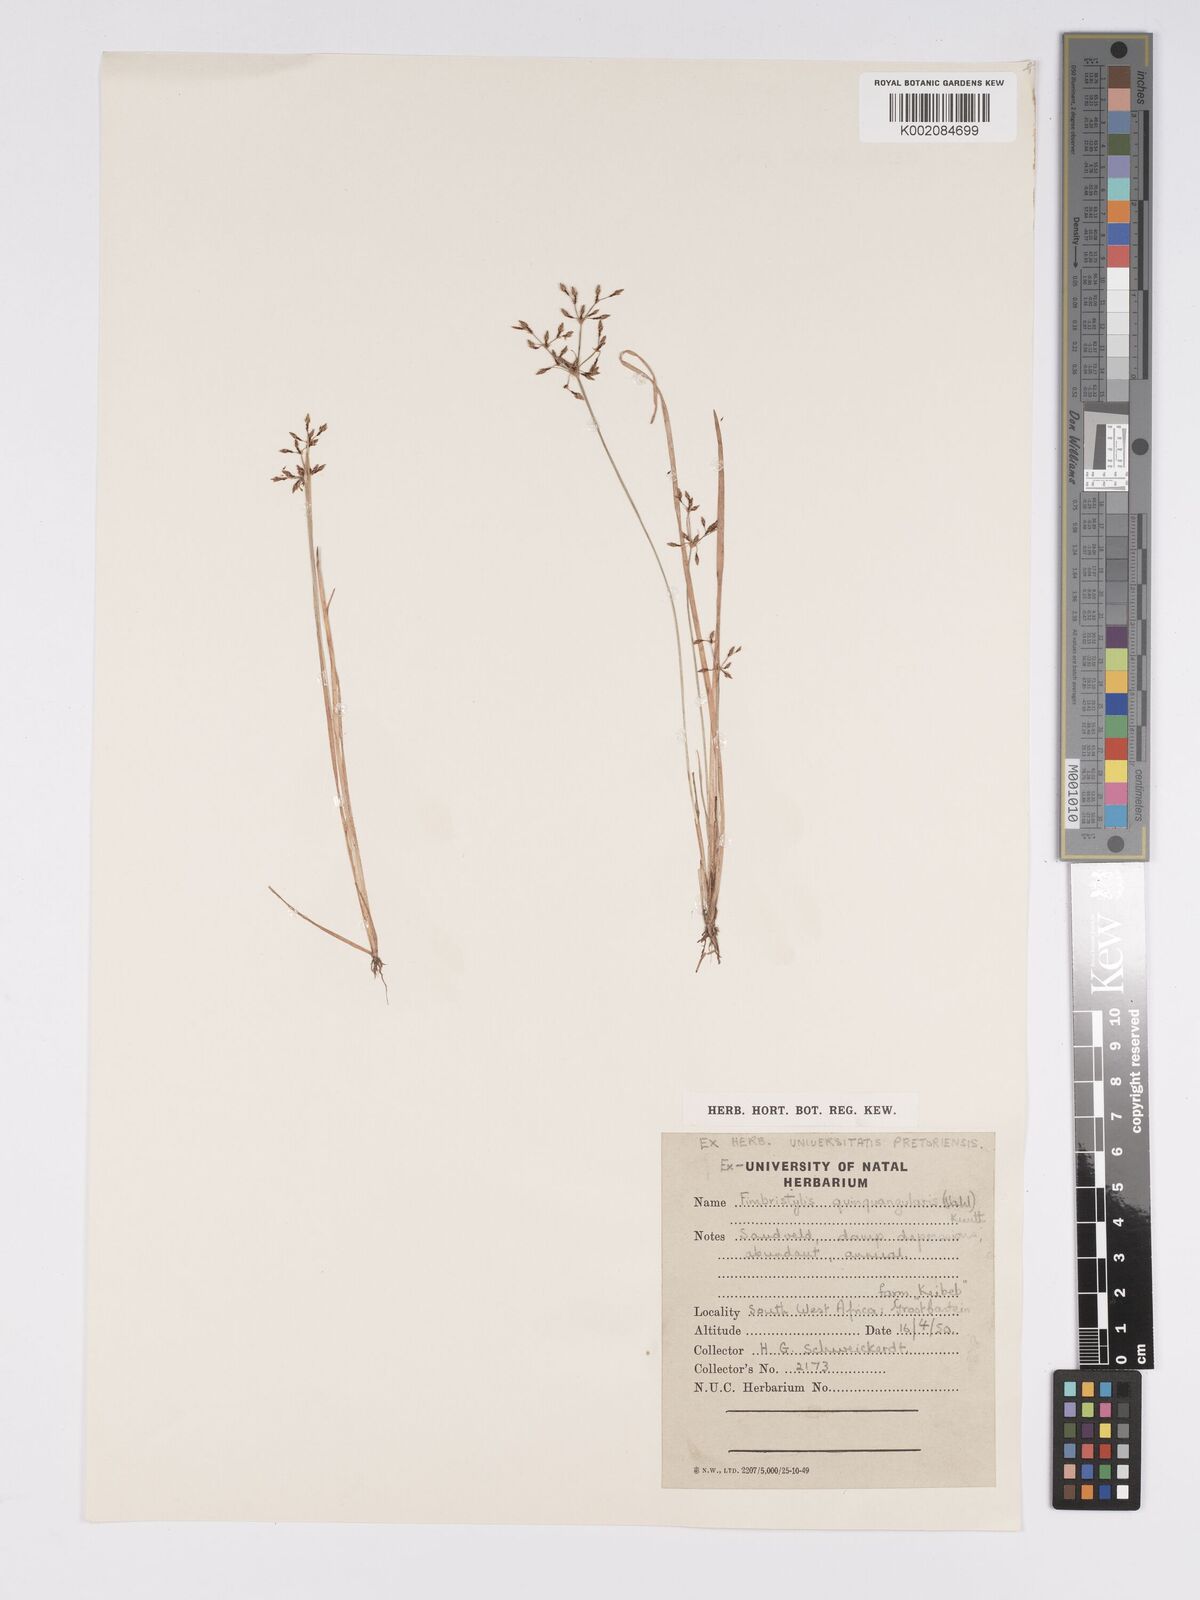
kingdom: Plantae
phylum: Tracheophyta
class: Liliopsida
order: Poales
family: Cyperaceae
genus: Bulbostylis
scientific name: Bulbostylis
